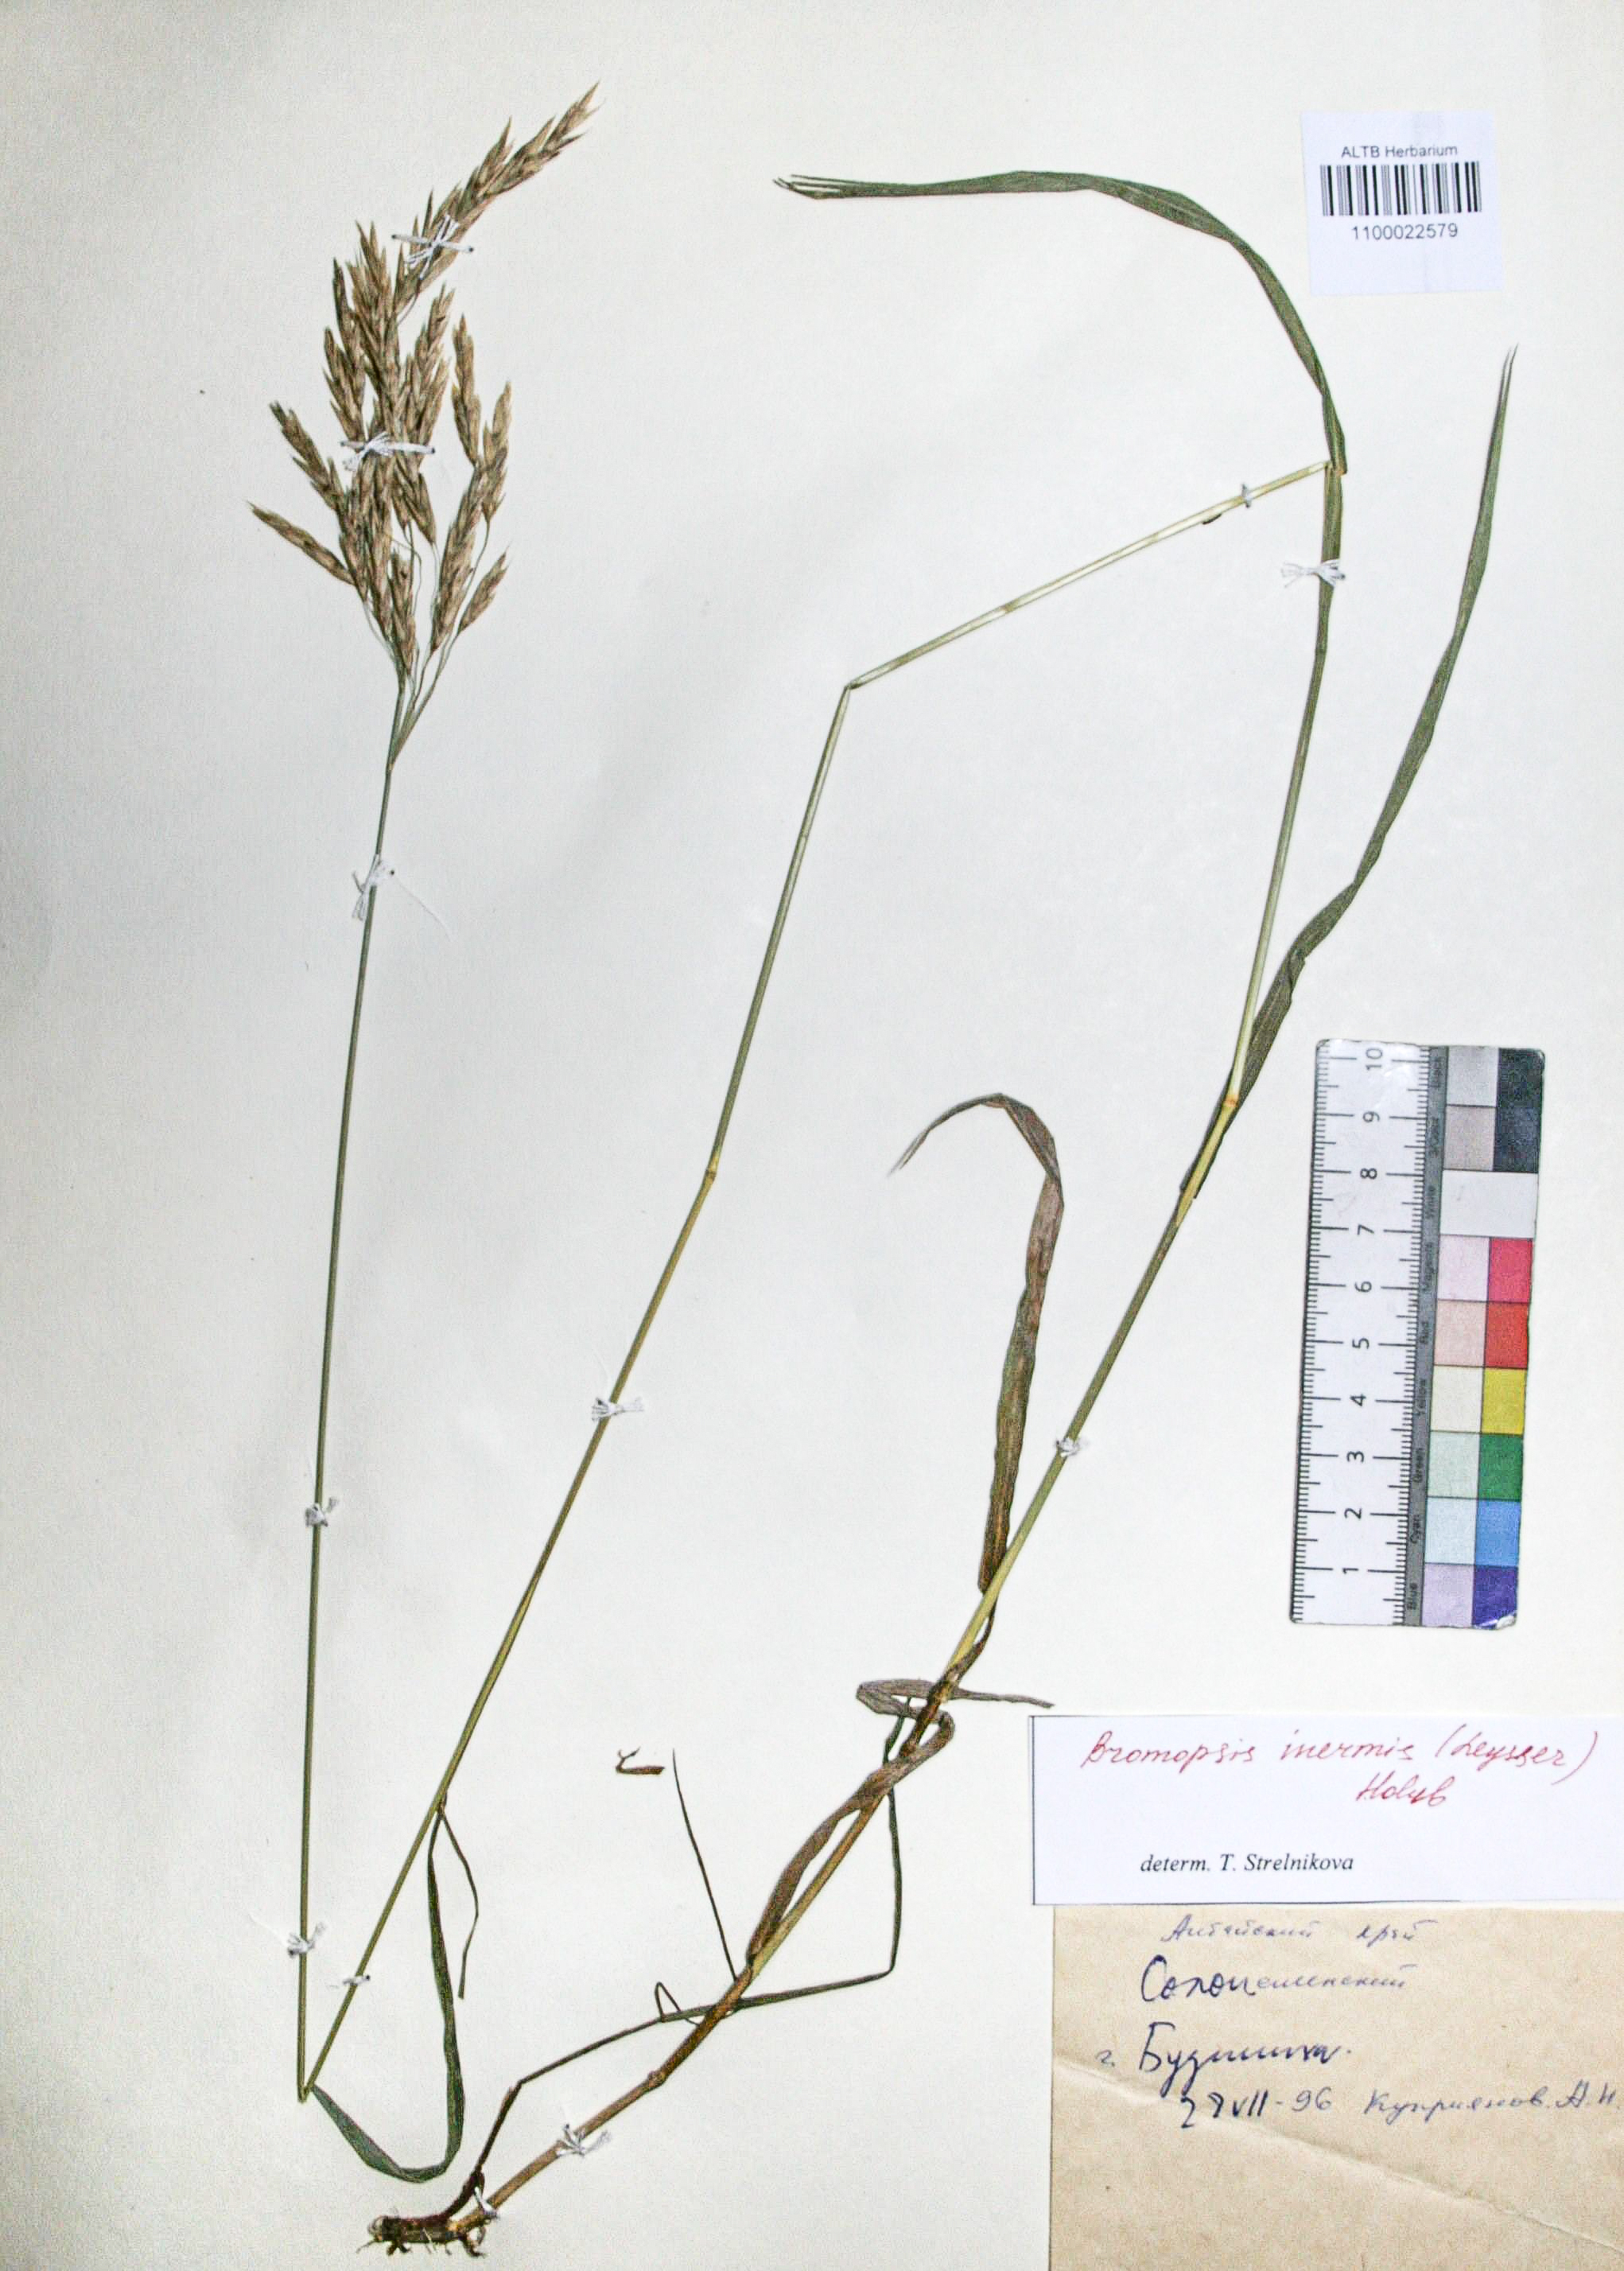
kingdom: Plantae
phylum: Tracheophyta
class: Liliopsida
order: Poales
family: Poaceae
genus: Bromus
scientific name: Bromus inermis
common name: Smooth brome
